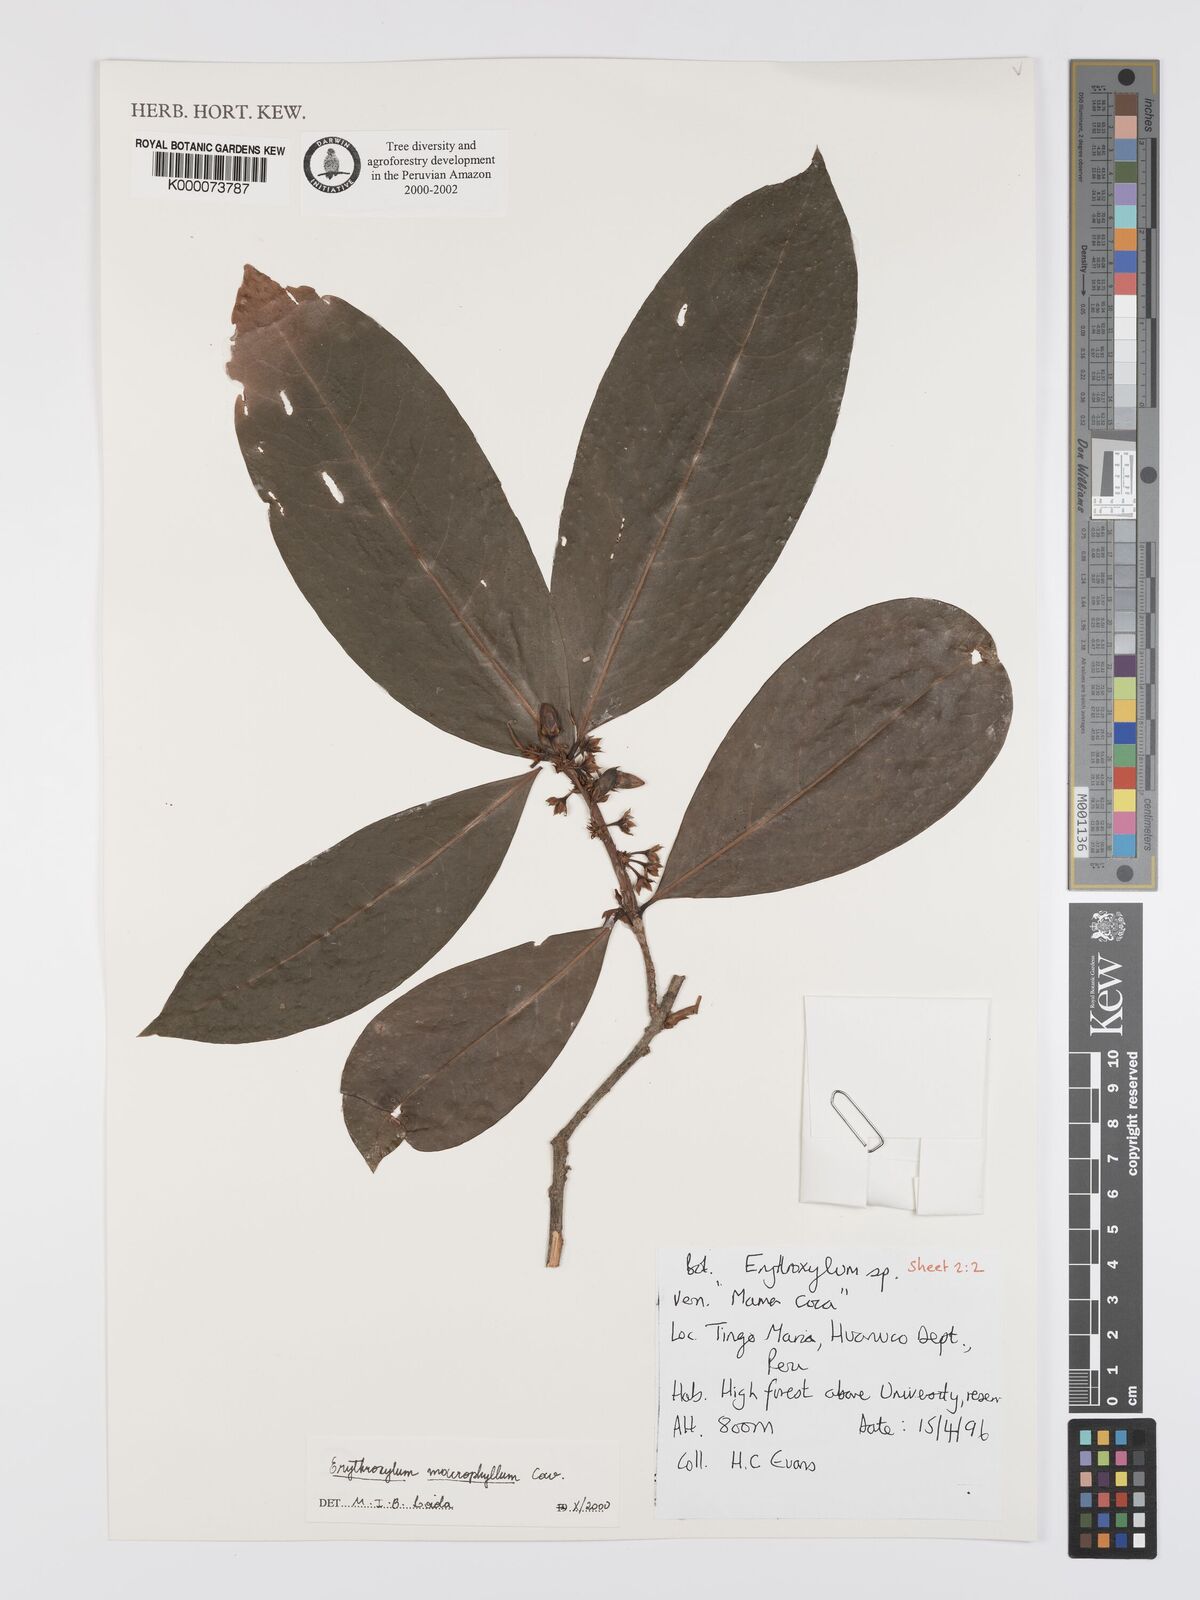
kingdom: Plantae
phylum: Tracheophyta
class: Magnoliopsida
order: Malpighiales
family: Erythroxylaceae
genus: Erythroxylum
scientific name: Erythroxylum
